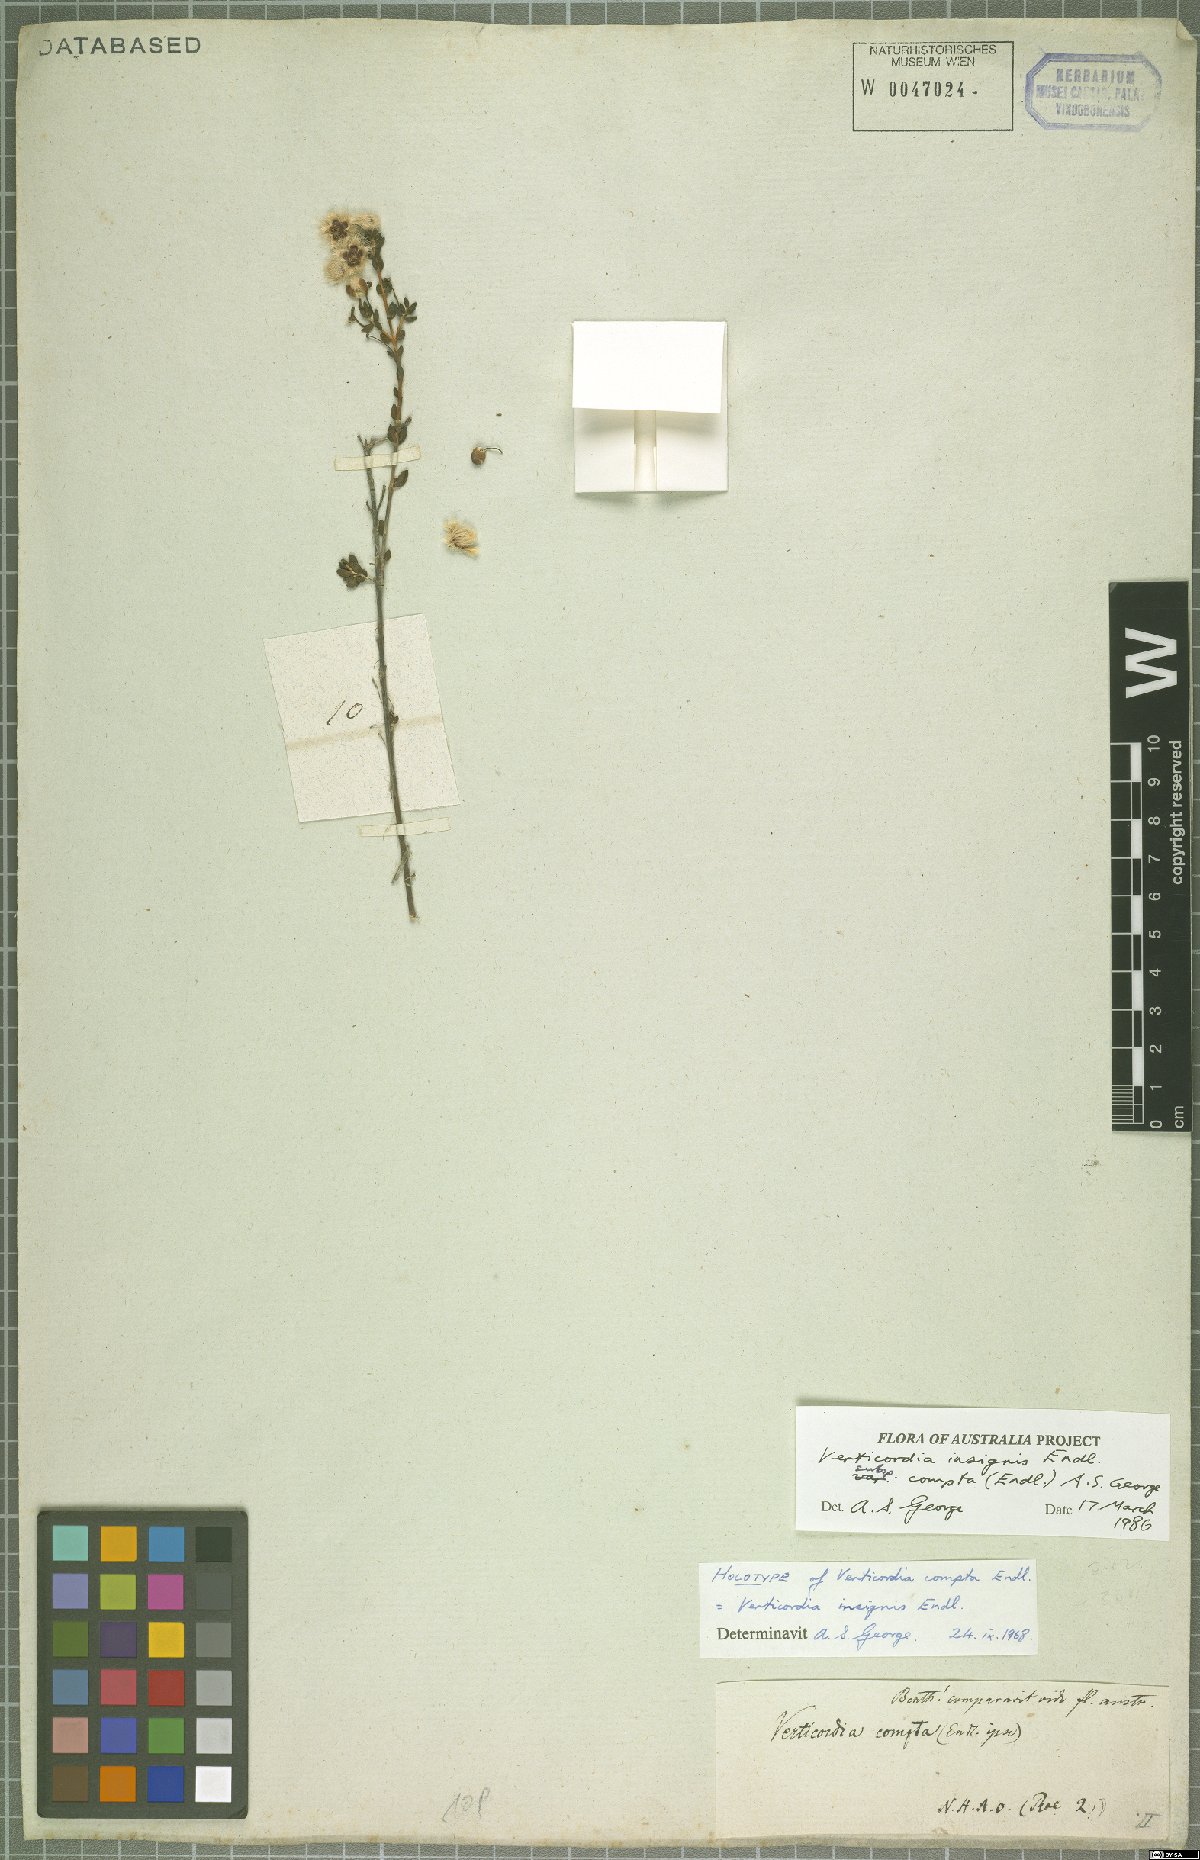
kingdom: Plantae
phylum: Tracheophyta
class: Magnoliopsida
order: Myrtales
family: Myrtaceae
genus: Verticordia
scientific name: Verticordia insignis
